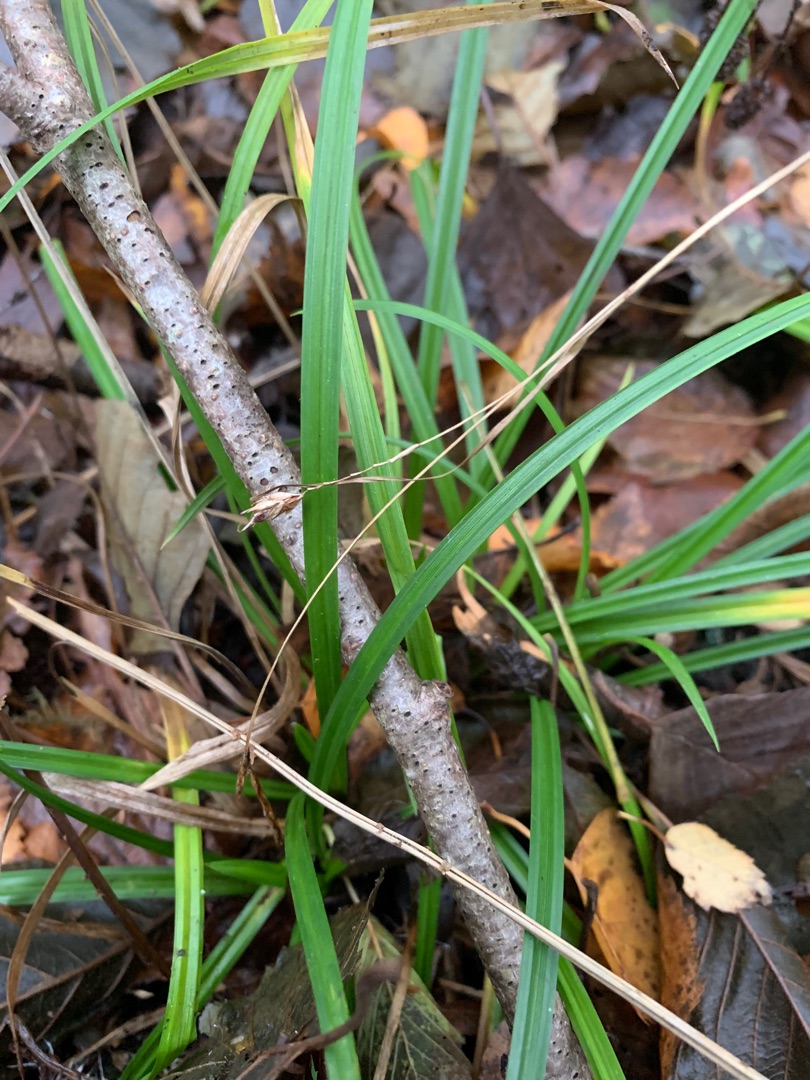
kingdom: Plantae
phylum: Tracheophyta
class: Liliopsida
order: Poales
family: Cyperaceae
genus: Carex
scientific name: Carex sylvatica
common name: Skov-star
